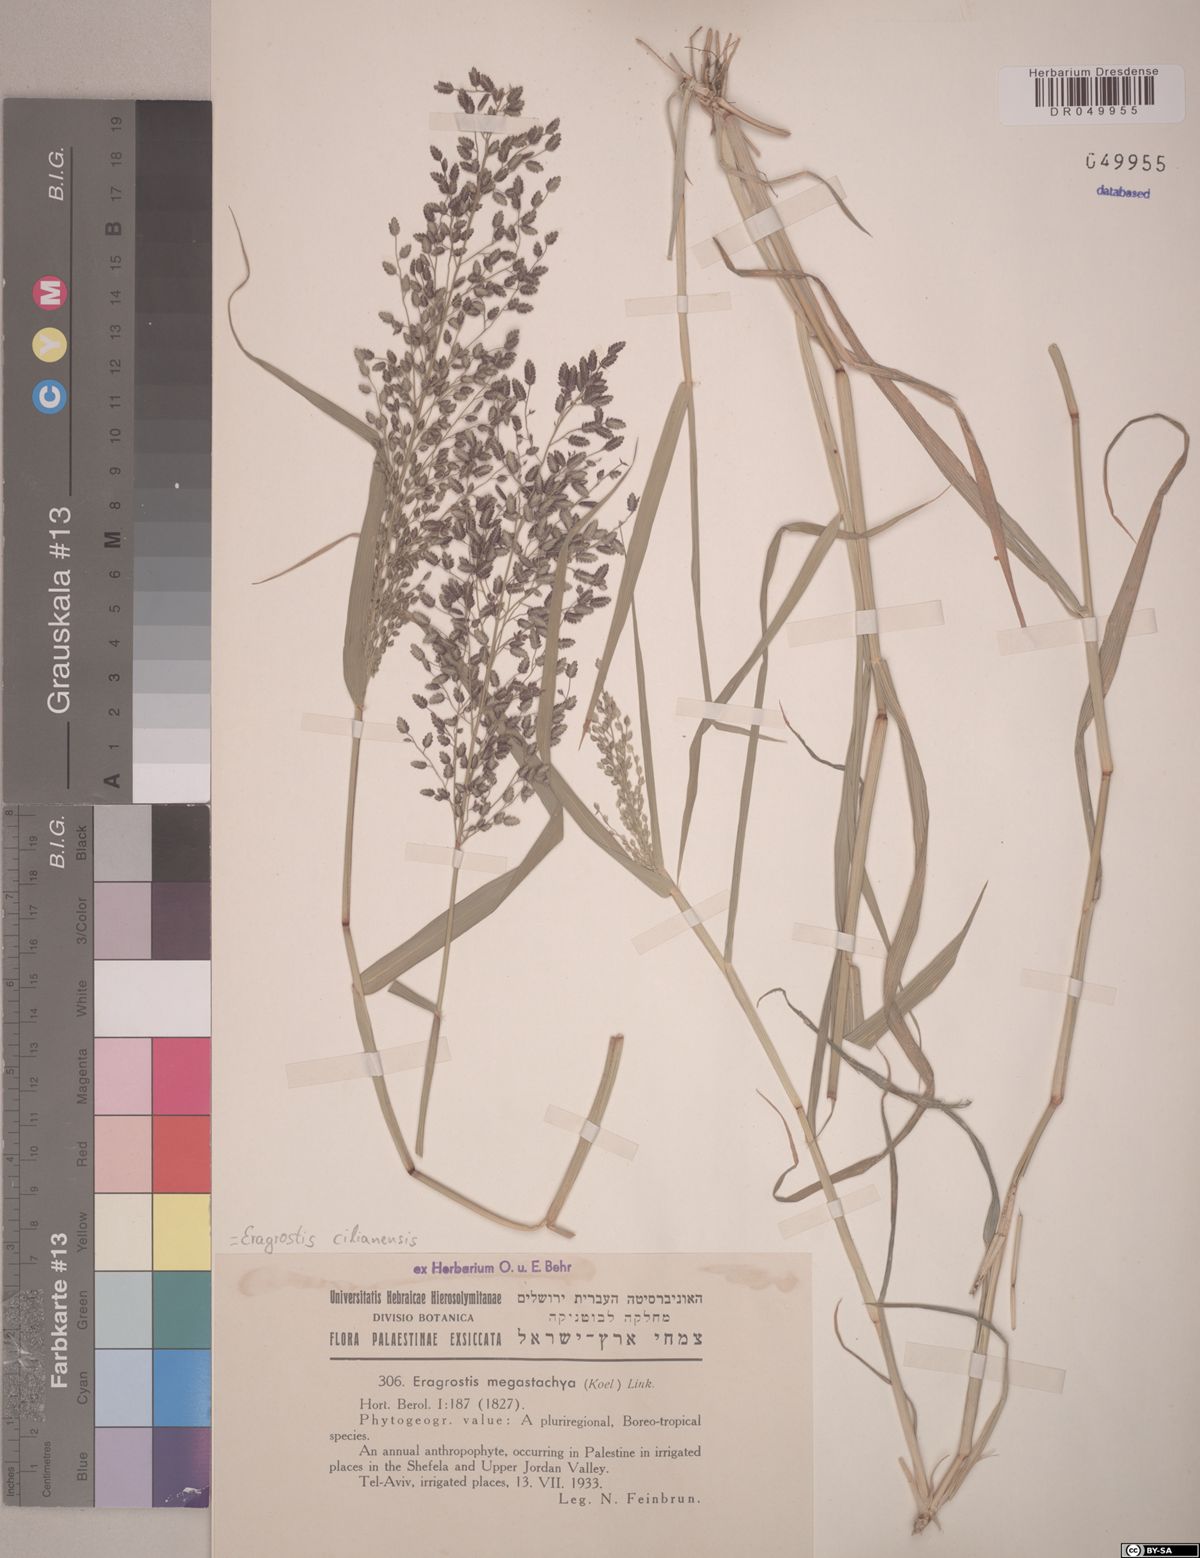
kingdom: Plantae
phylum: Tracheophyta
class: Liliopsida
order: Poales
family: Poaceae
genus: Eragrostis
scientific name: Eragrostis cilianensis
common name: Stinkgrass
